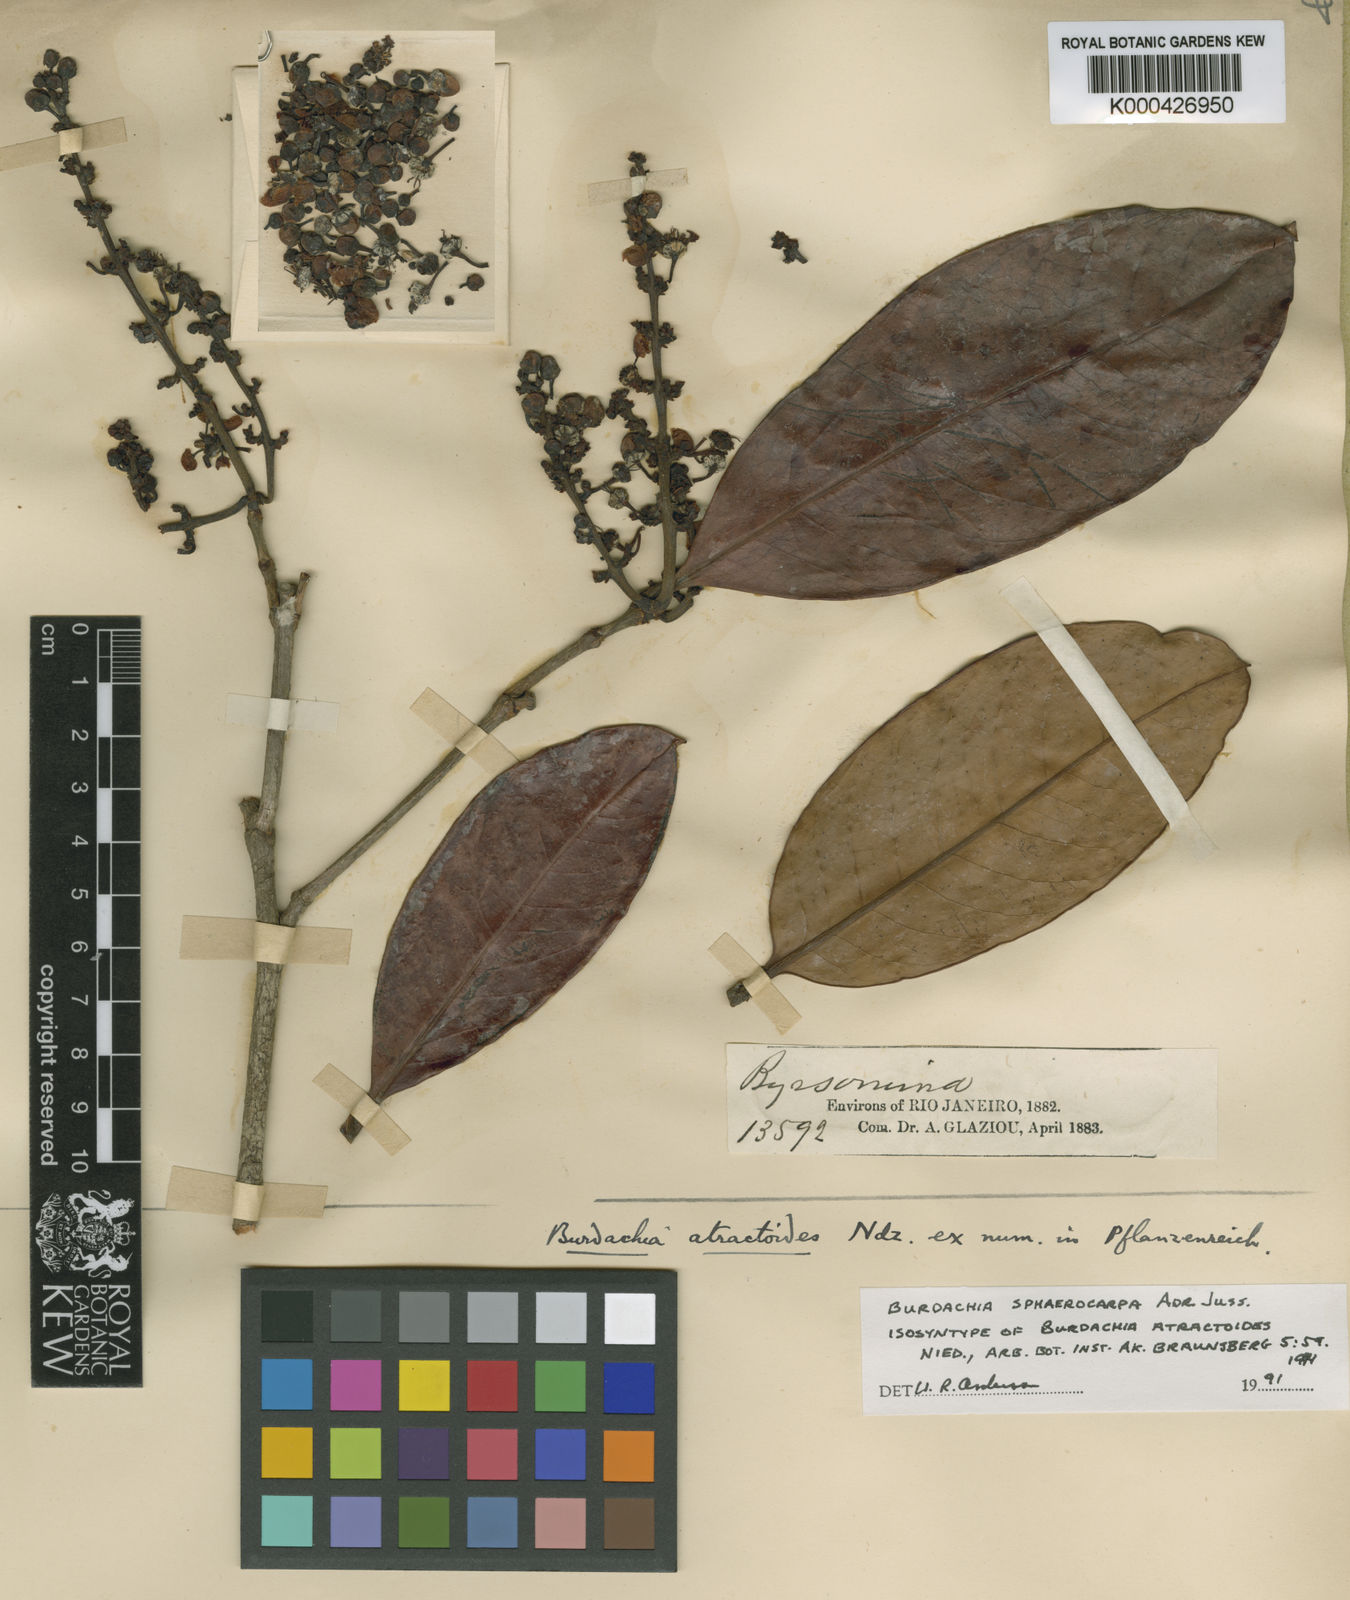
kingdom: Plantae
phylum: Tracheophyta
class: Magnoliopsida
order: Malpighiales
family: Malpighiaceae
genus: Burdachia
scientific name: Burdachia sphaerocarpa
